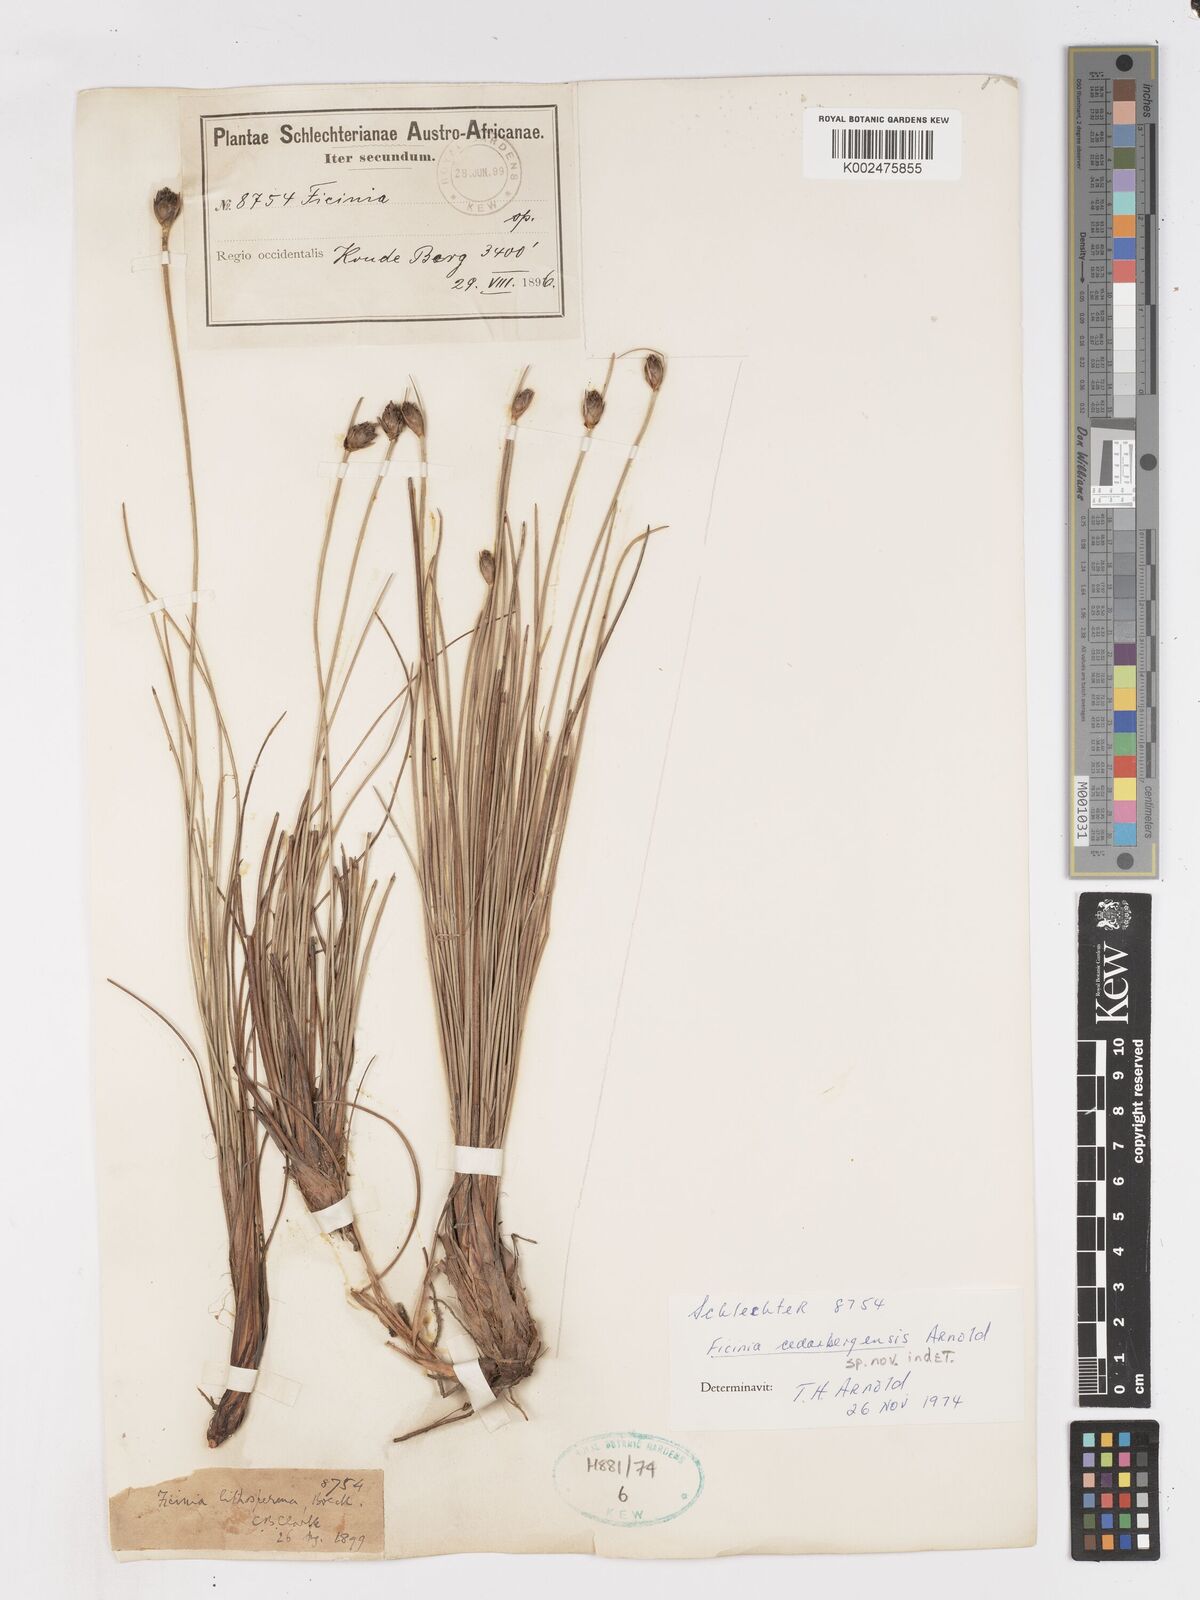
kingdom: Plantae
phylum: Tracheophyta
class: Liliopsida
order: Poales
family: Cyperaceae
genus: Ficinia
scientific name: Ficinia cedarbergensis
